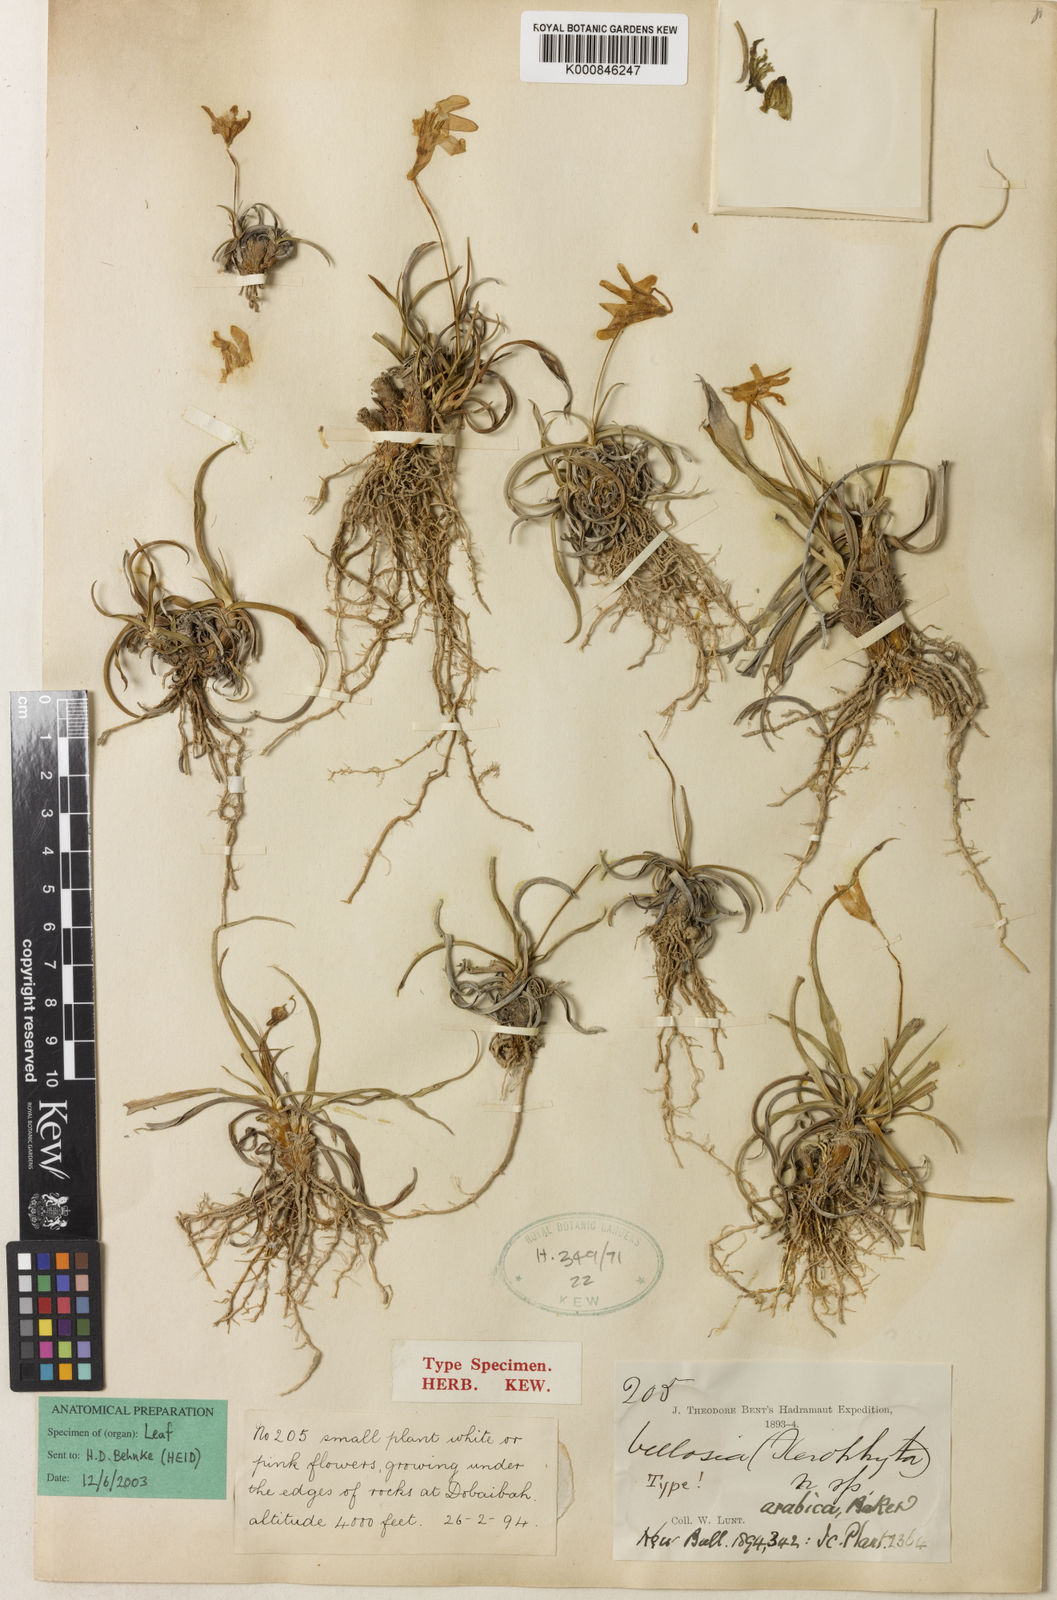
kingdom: Plantae
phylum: Tracheophyta
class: Liliopsida
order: Pandanales
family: Velloziaceae
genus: Xerophyta
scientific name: Xerophyta arabica
